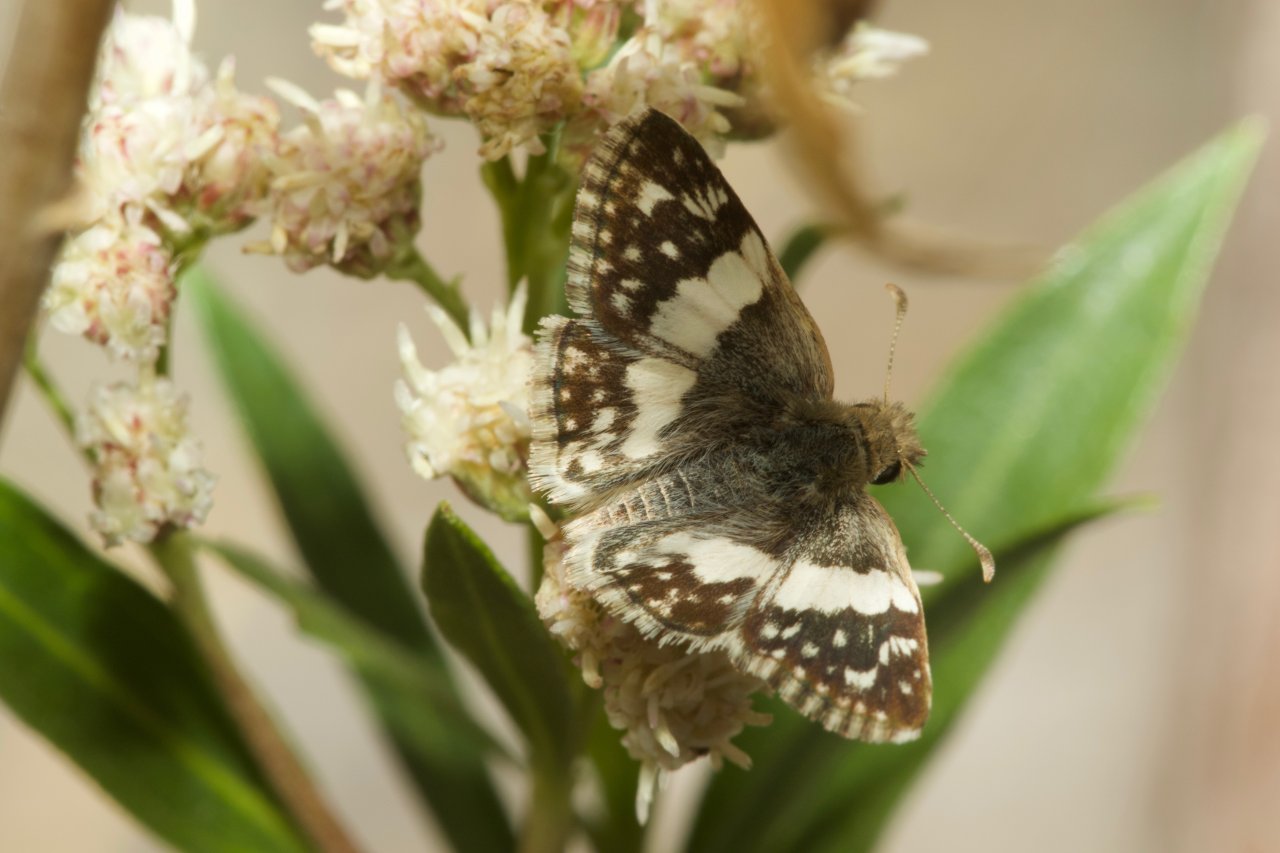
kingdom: Animalia
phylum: Arthropoda
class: Insecta
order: Lepidoptera
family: Hesperiidae
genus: Heliopyrgus
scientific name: Heliopyrgus domicella
